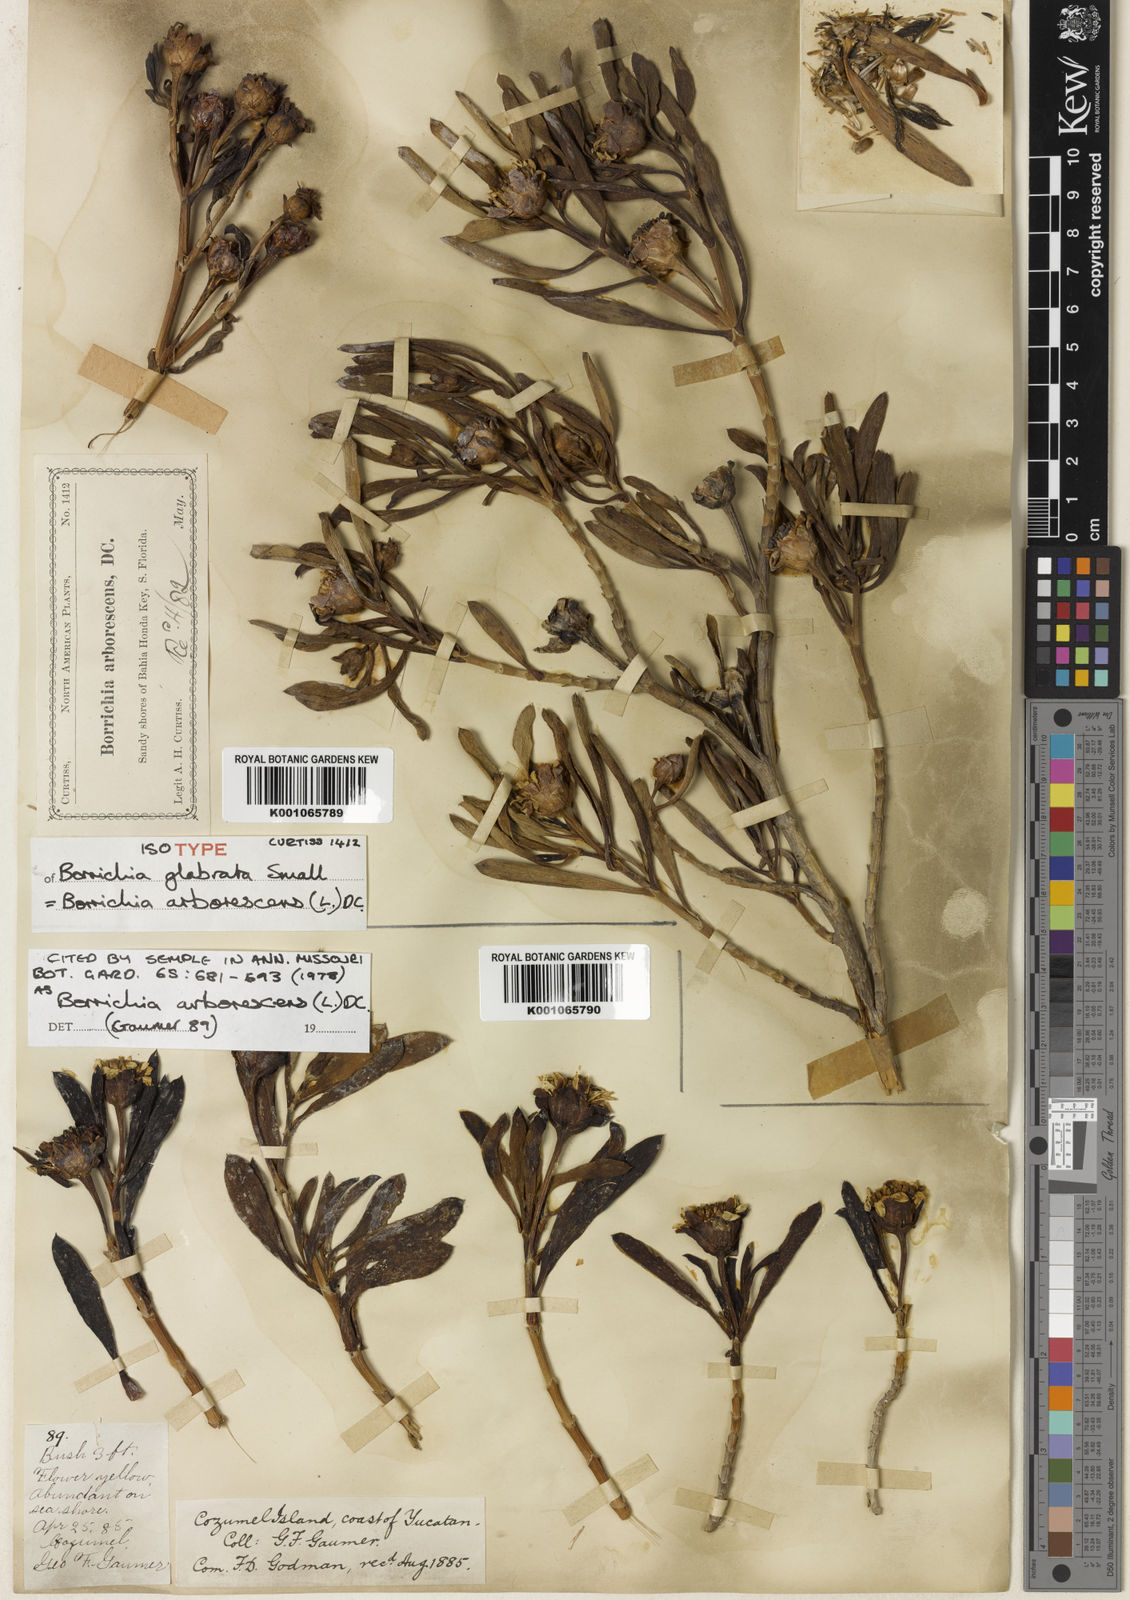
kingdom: Plantae
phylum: Tracheophyta
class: Magnoliopsida
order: Asterales
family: Asteraceae
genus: Borrichia
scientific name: Borrichia arborescens
